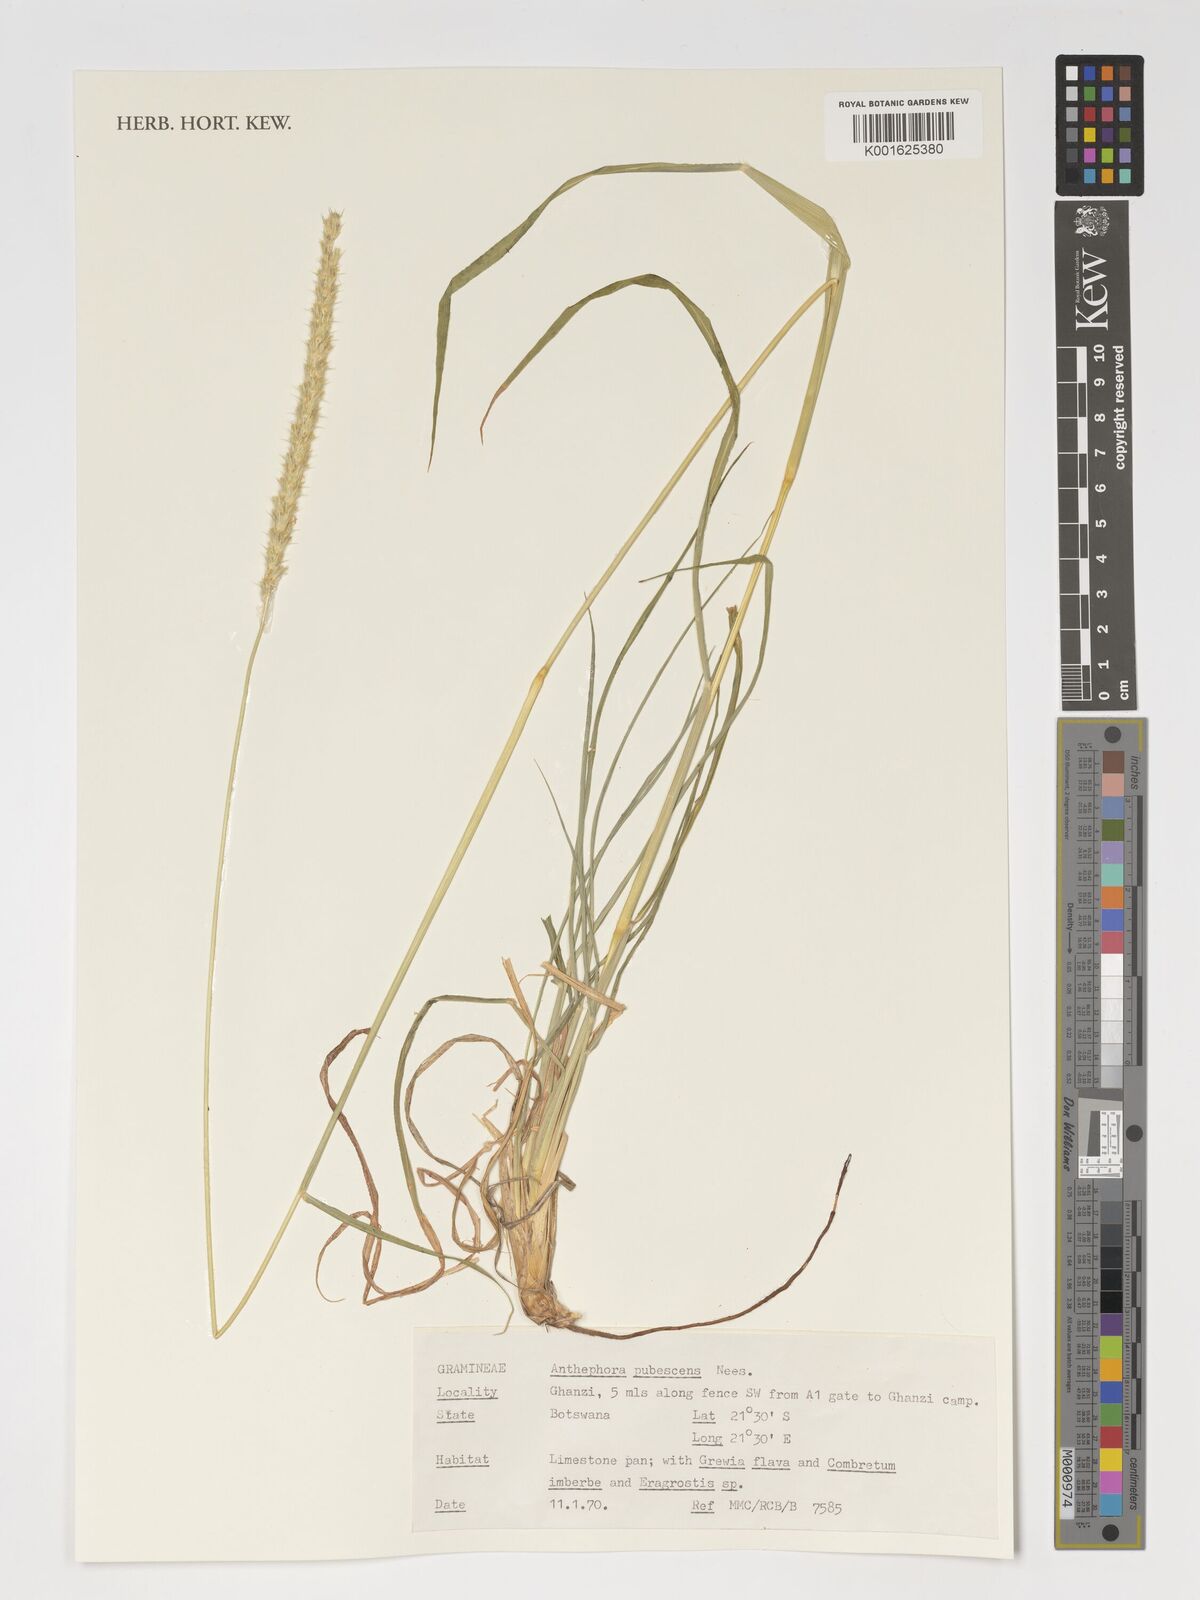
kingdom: Plantae
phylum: Tracheophyta
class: Liliopsida
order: Poales
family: Poaceae
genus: Anthephora
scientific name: Anthephora pubescens
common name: Wool grass
